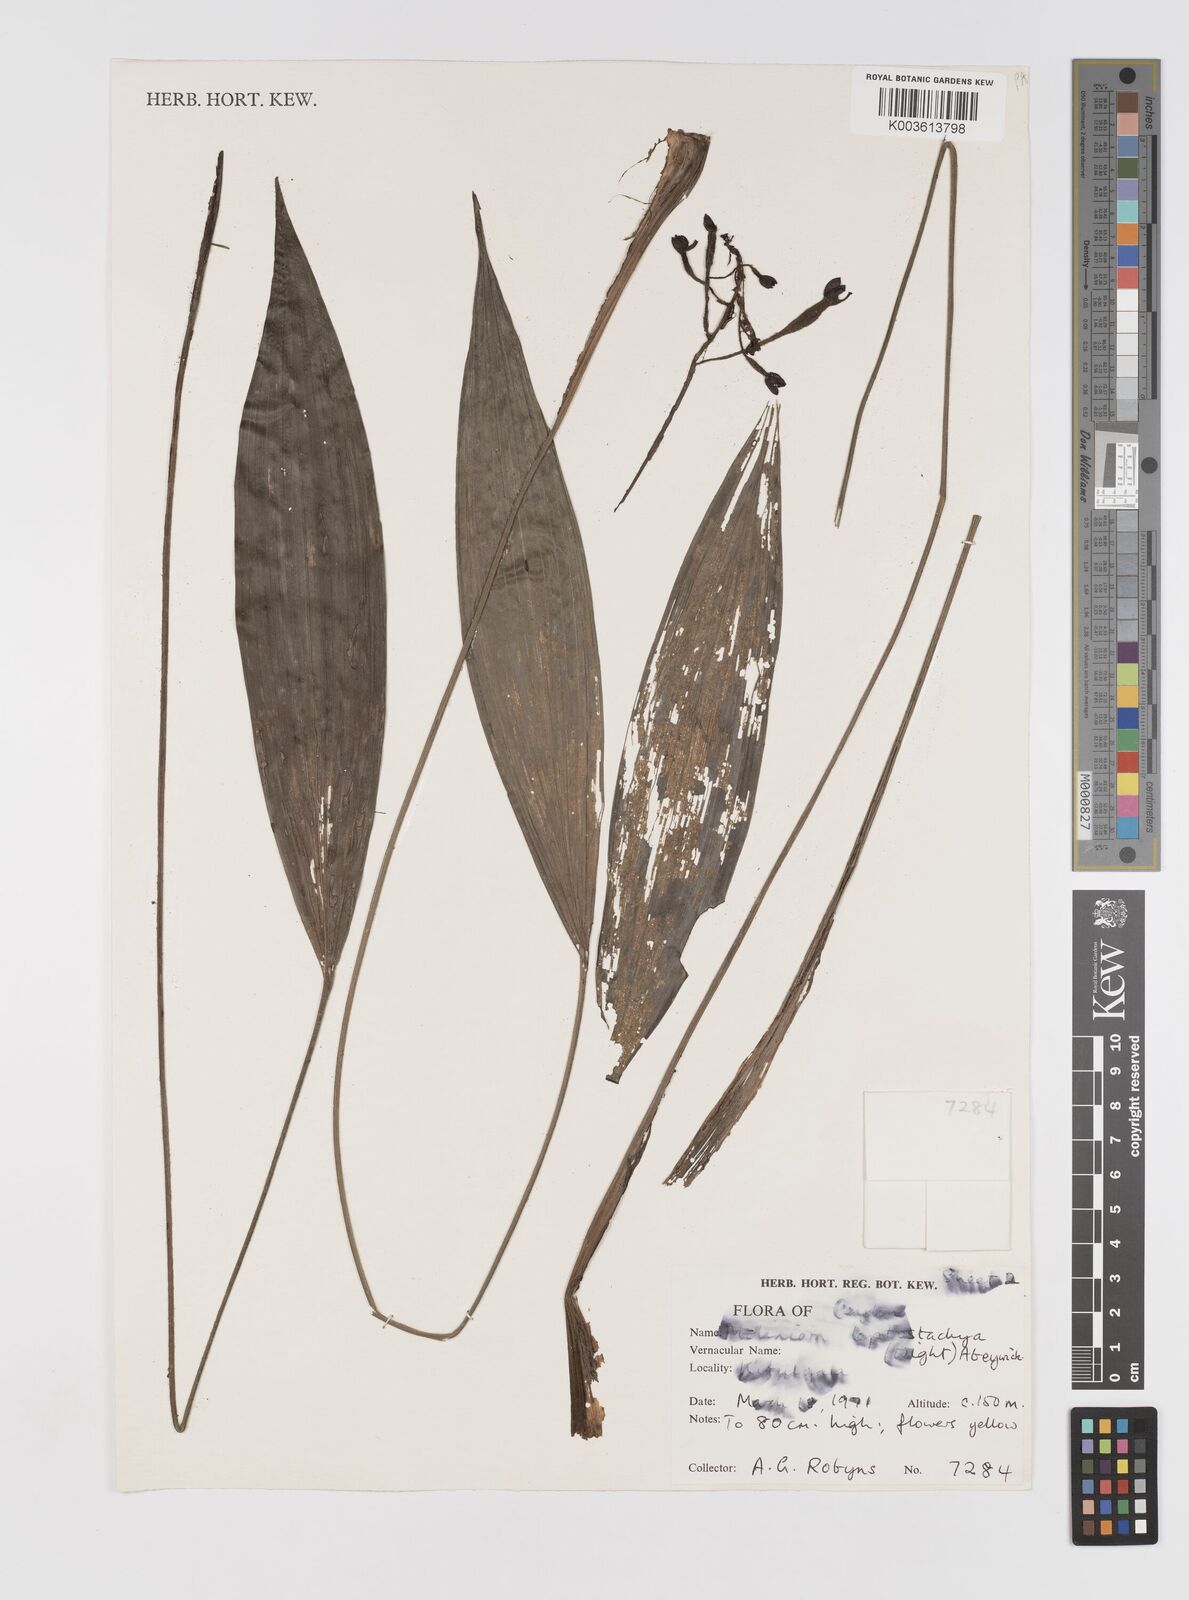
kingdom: Plantae
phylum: Tracheophyta
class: Liliopsida
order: Asparagales
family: Hypoxidaceae
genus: Curculigo
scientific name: Curculigo trichocarpa
